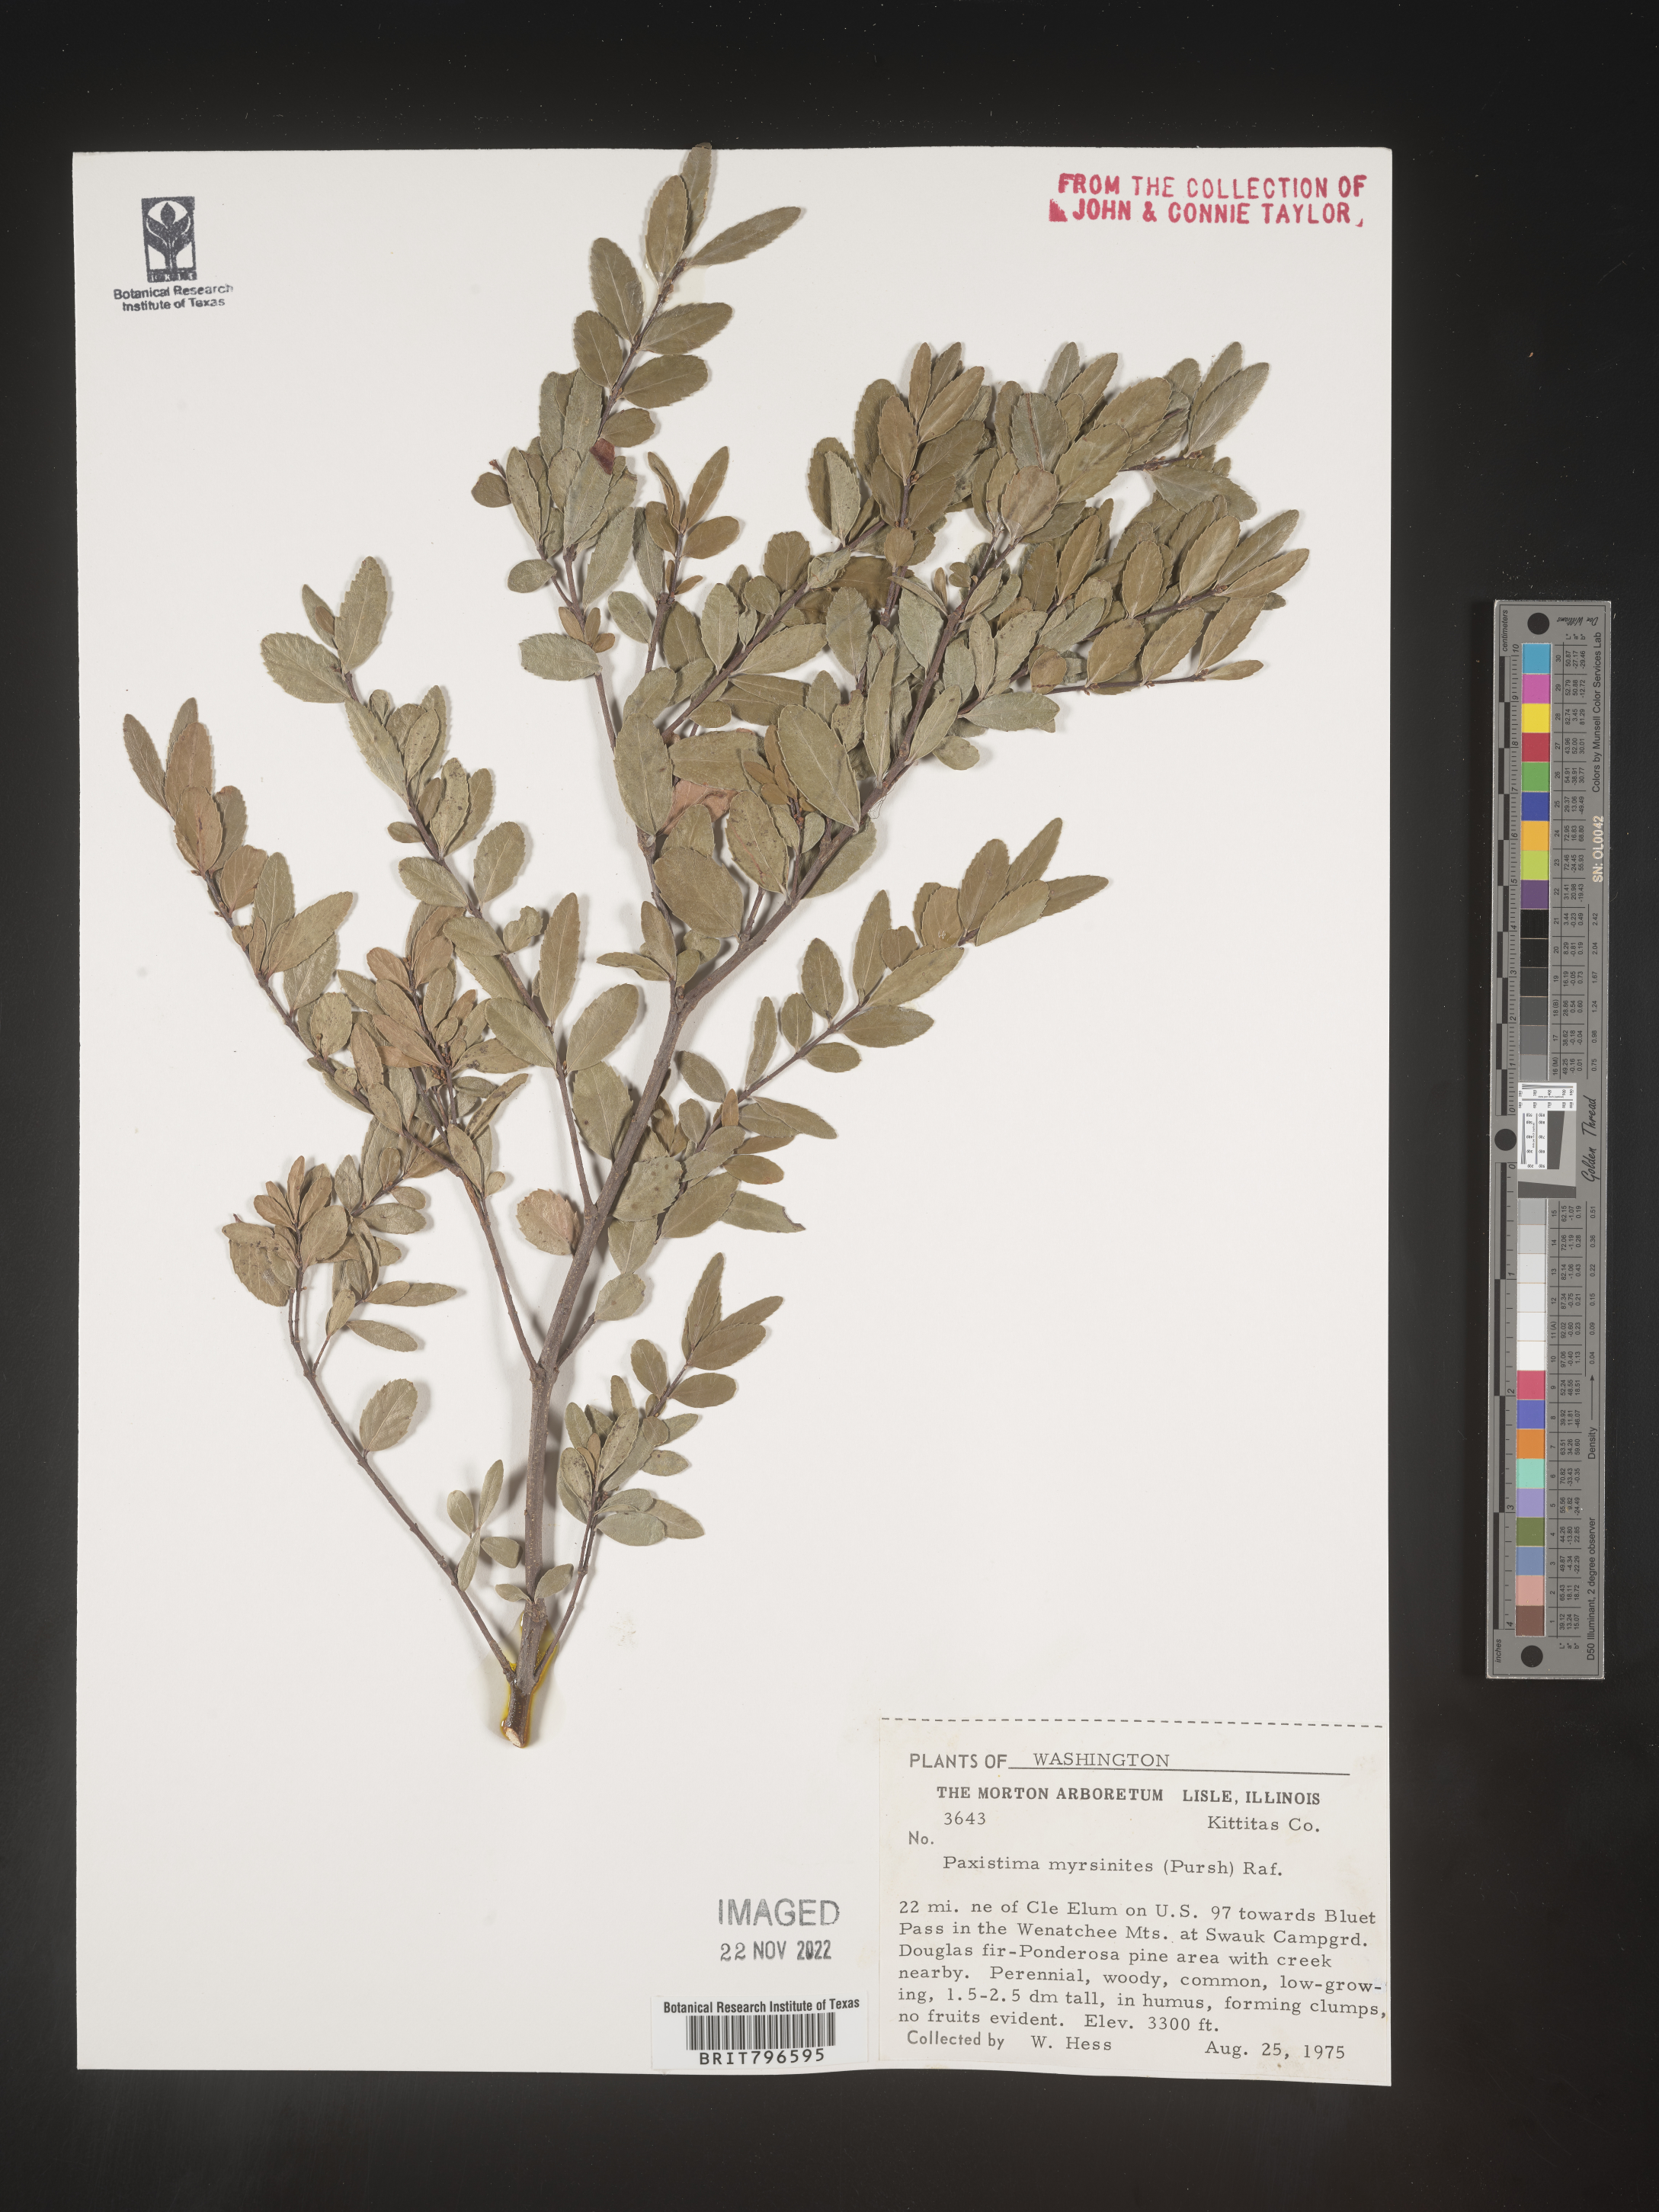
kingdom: Plantae
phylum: Tracheophyta
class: Magnoliopsida
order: Celastrales
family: Celastraceae
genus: Paxistima
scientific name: Paxistima myrsinites
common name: Mountain-lover
